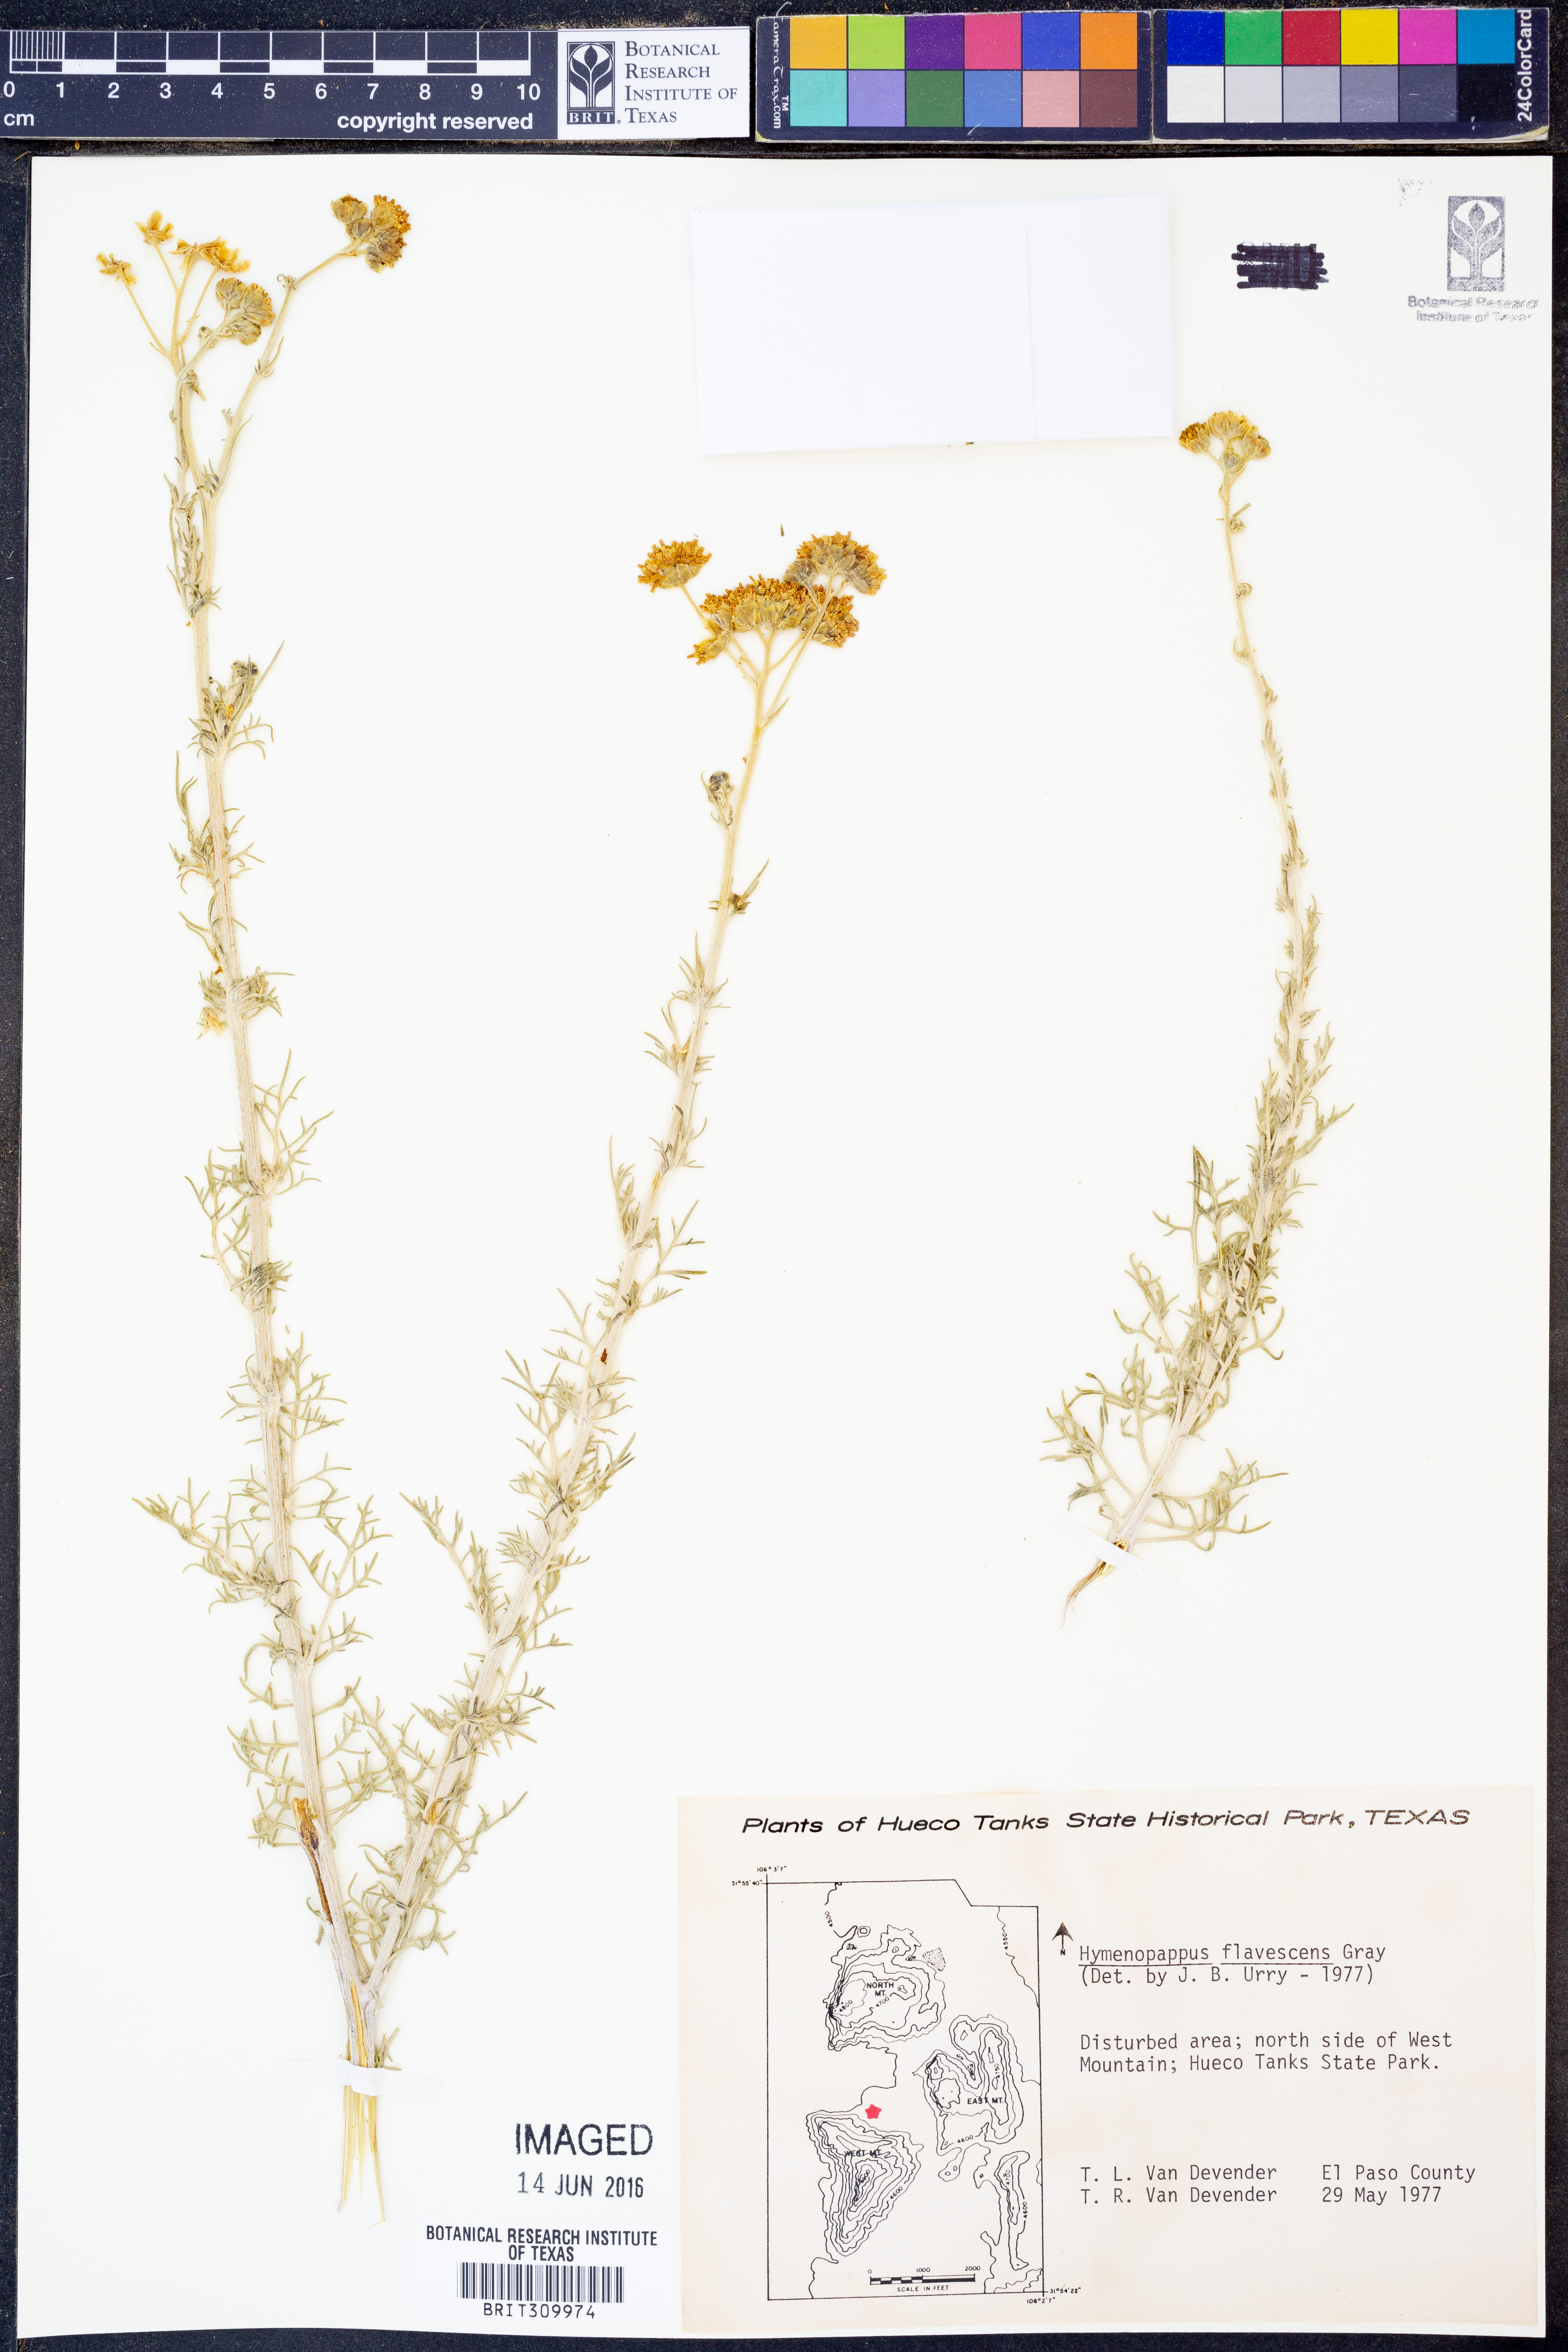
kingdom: Plantae
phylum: Tracheophyta
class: Magnoliopsida
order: Asterales
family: Asteraceae
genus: Hymenopappus
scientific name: Hymenopappus flavescens
